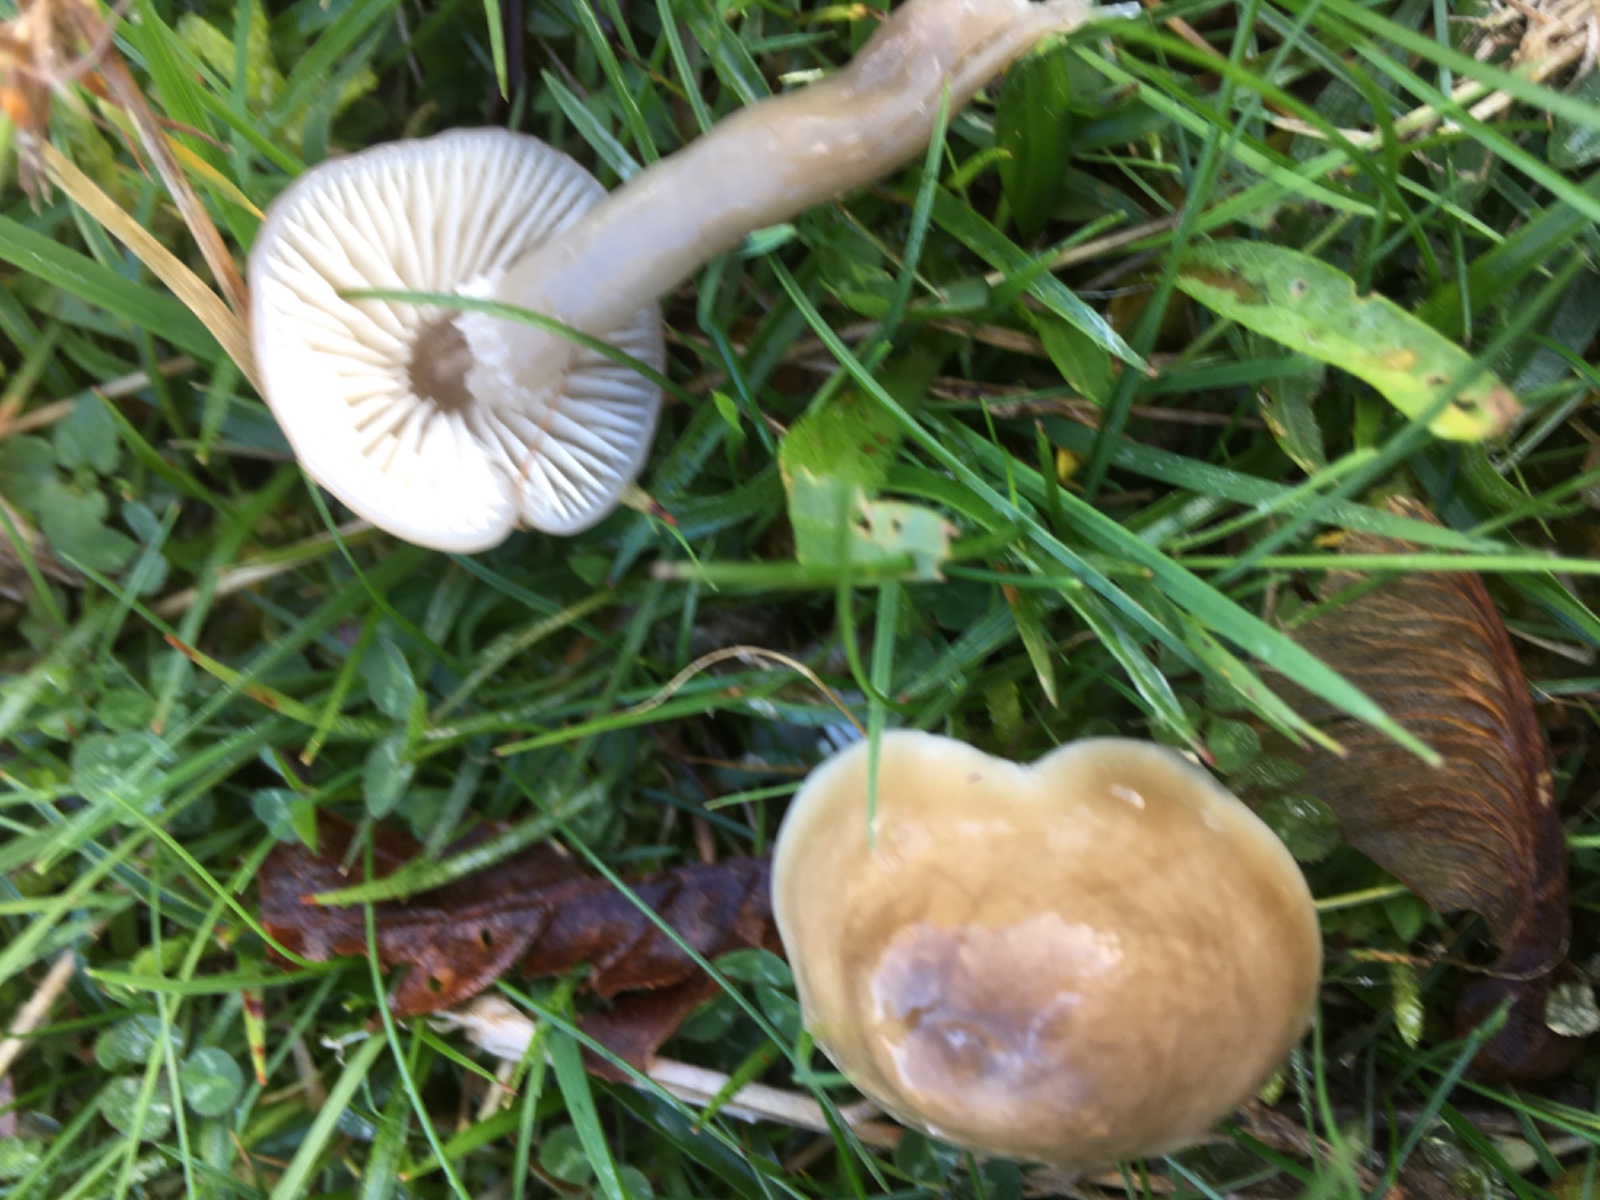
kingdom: Fungi
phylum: Basidiomycota
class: Agaricomycetes
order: Agaricales
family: Hygrophoraceae
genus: Gliophorus
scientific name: Gliophorus irrigatus
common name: slimet vokshat
